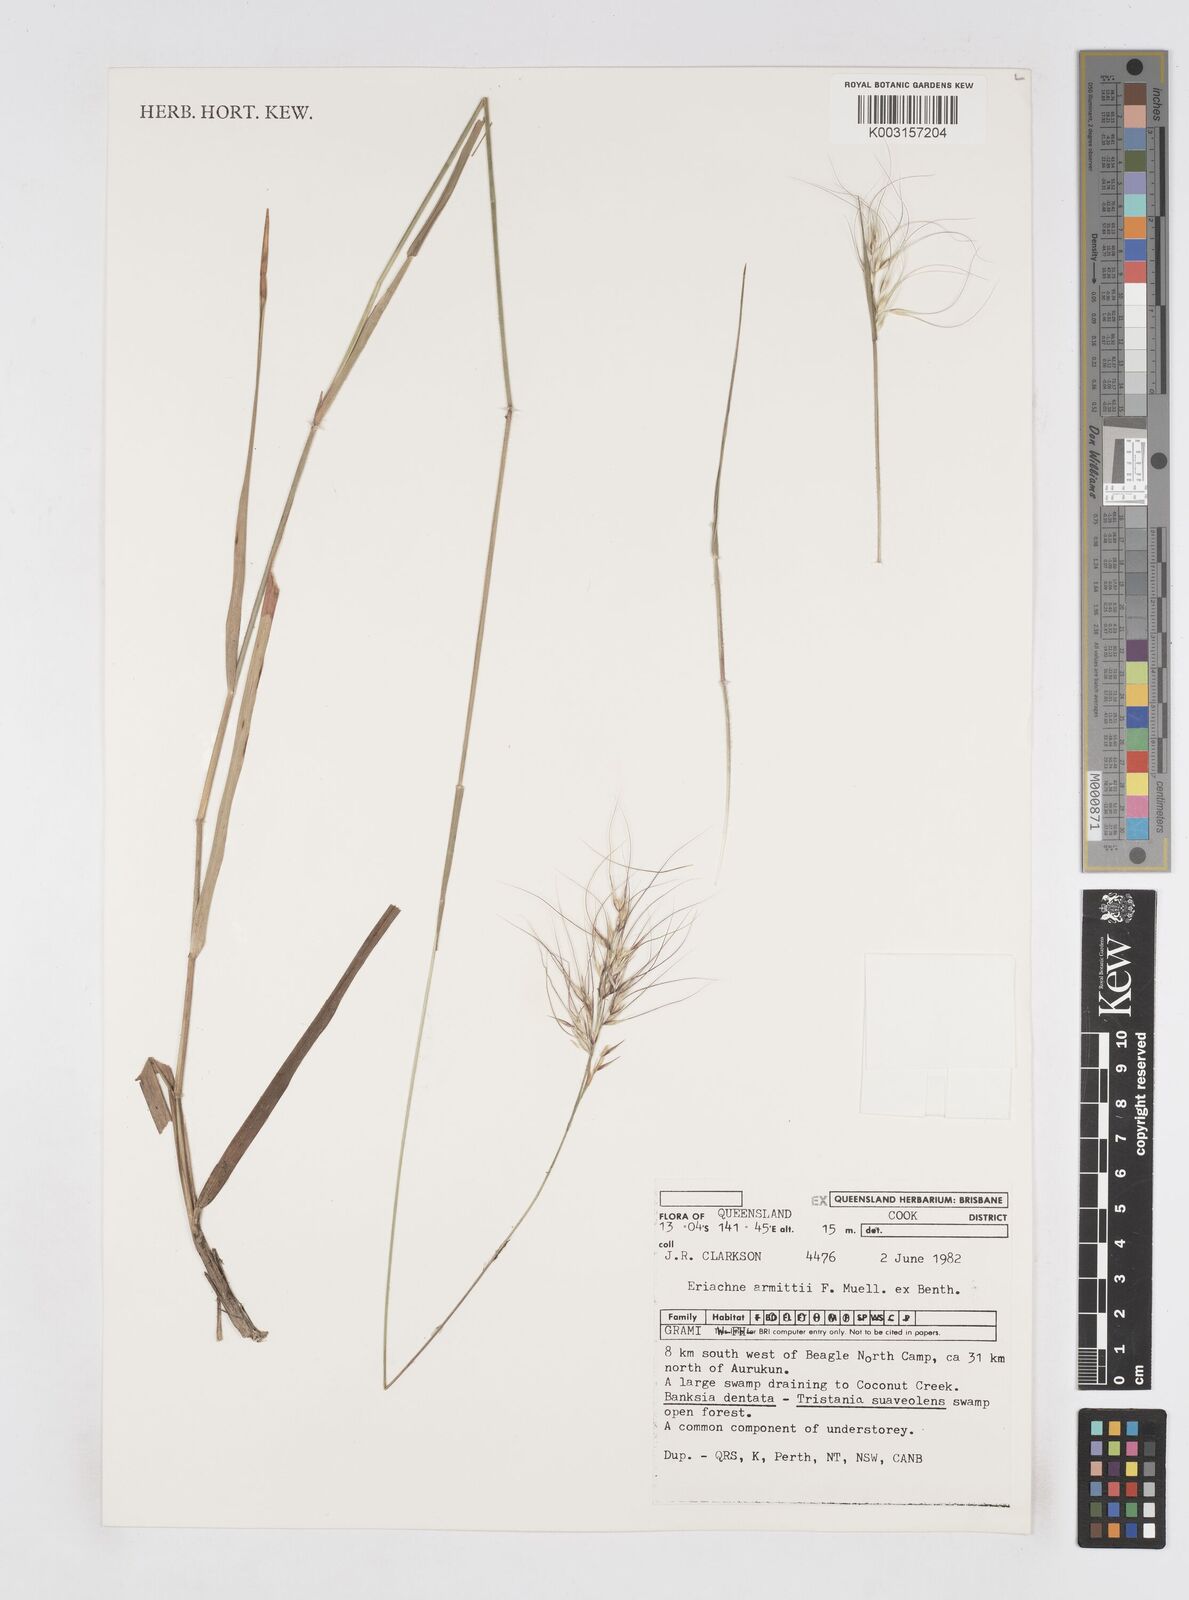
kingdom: Plantae
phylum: Tracheophyta
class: Liliopsida
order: Poales
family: Poaceae
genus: Eriachne
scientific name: Eriachne armitii
